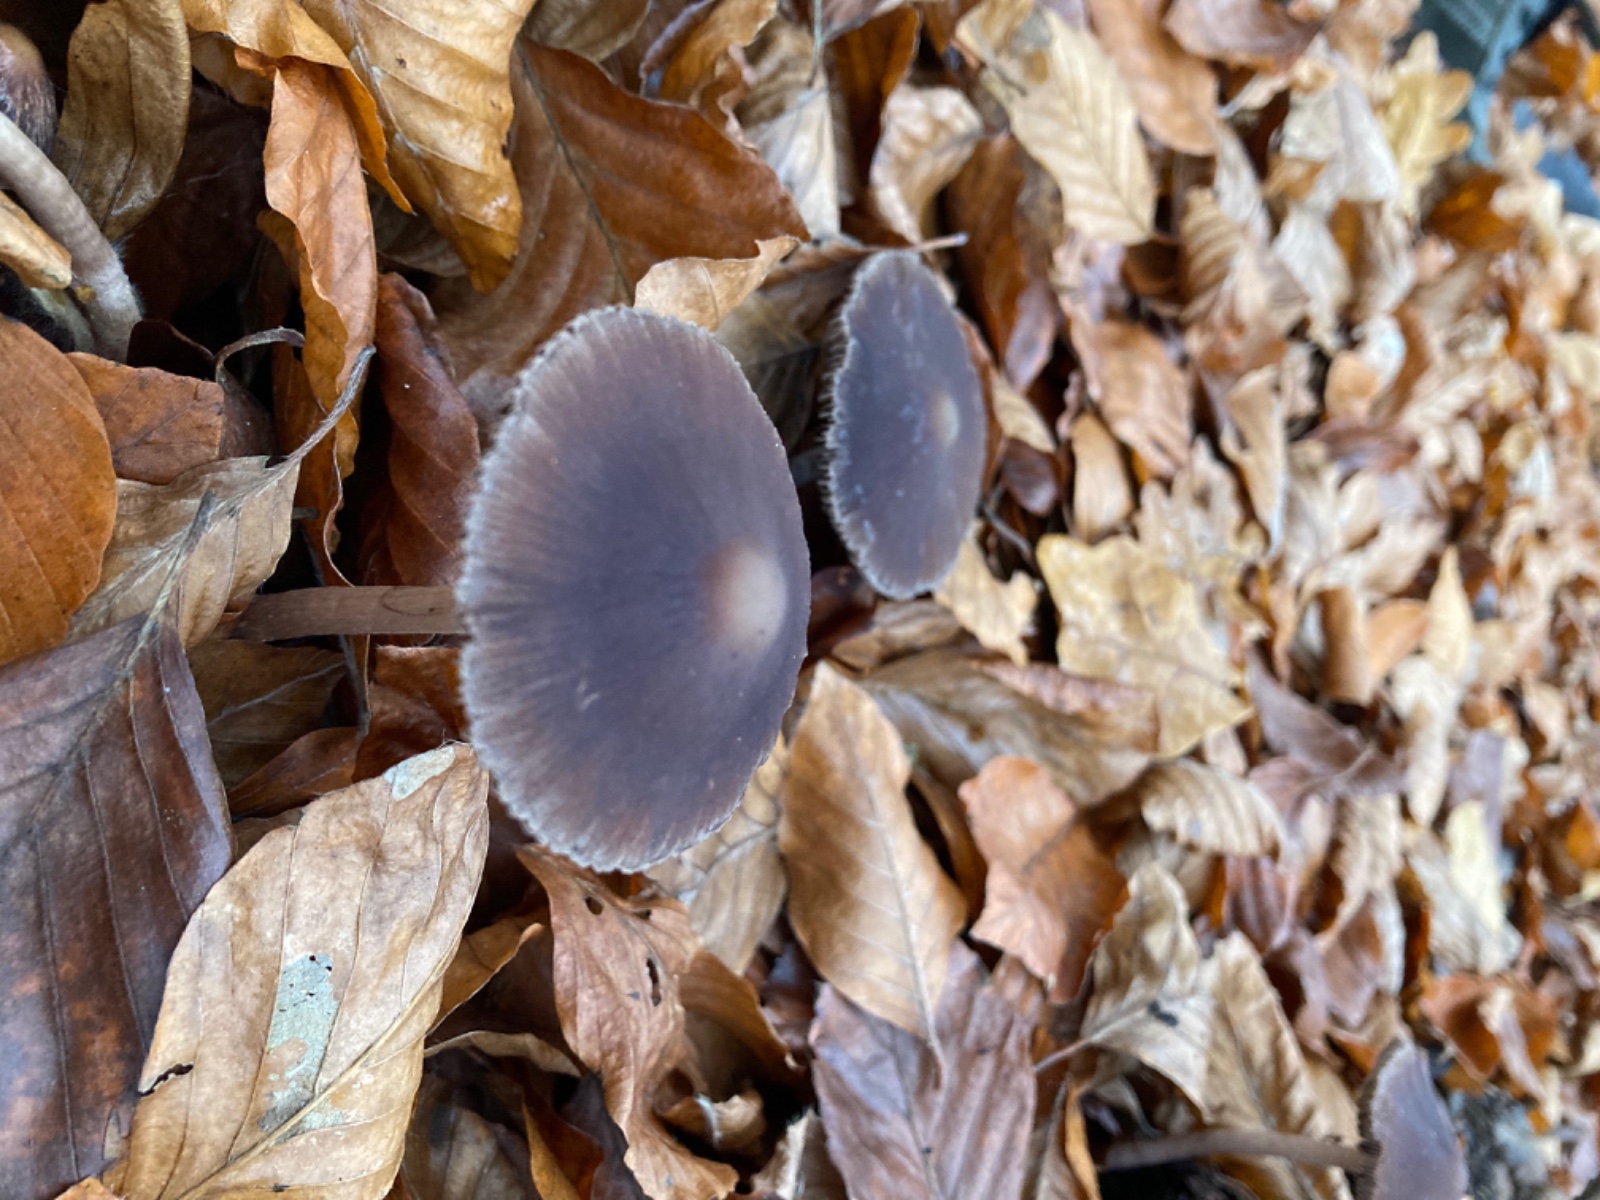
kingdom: Fungi
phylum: Basidiomycota
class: Agaricomycetes
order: Agaricales
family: Psathyrellaceae
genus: Psathyrella
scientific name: Psathyrella bipellis
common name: vinrød mørkhat
